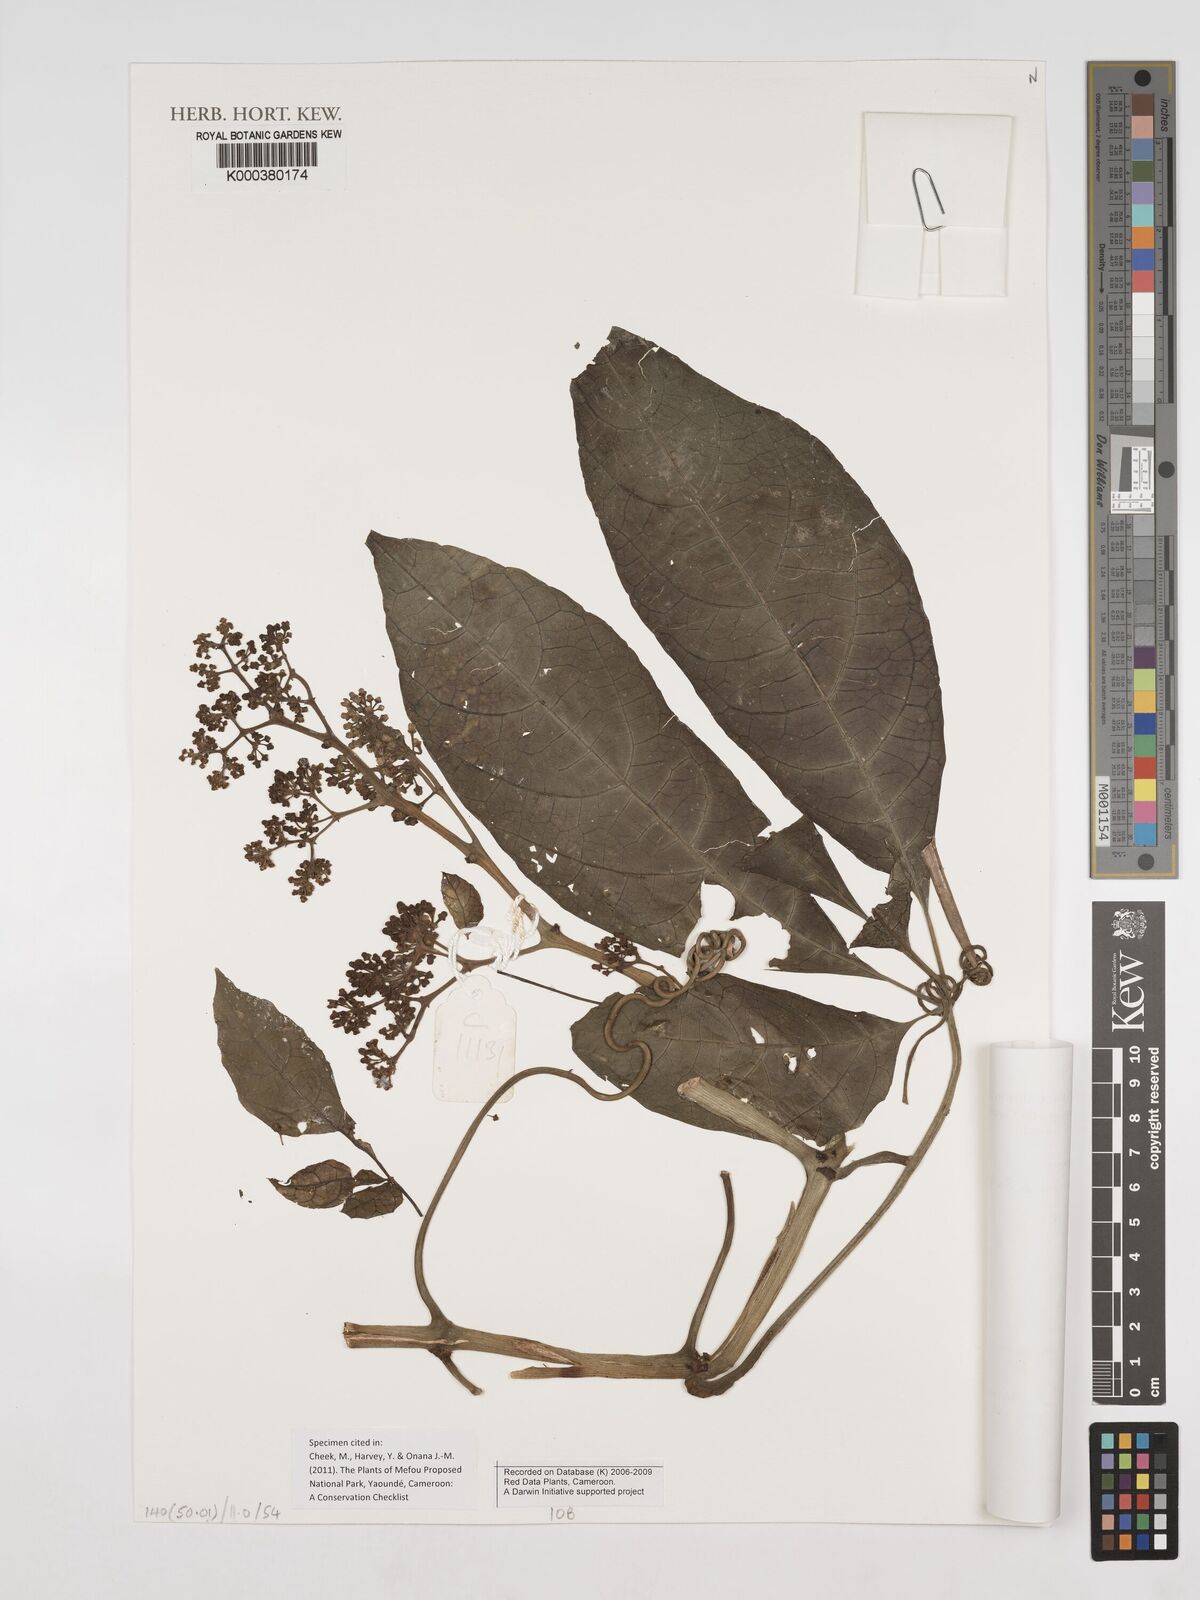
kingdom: Plantae
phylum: Tracheophyta
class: Magnoliopsida
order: Vitales
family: Vitaceae
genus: Cissus
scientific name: Cissus aralioides
